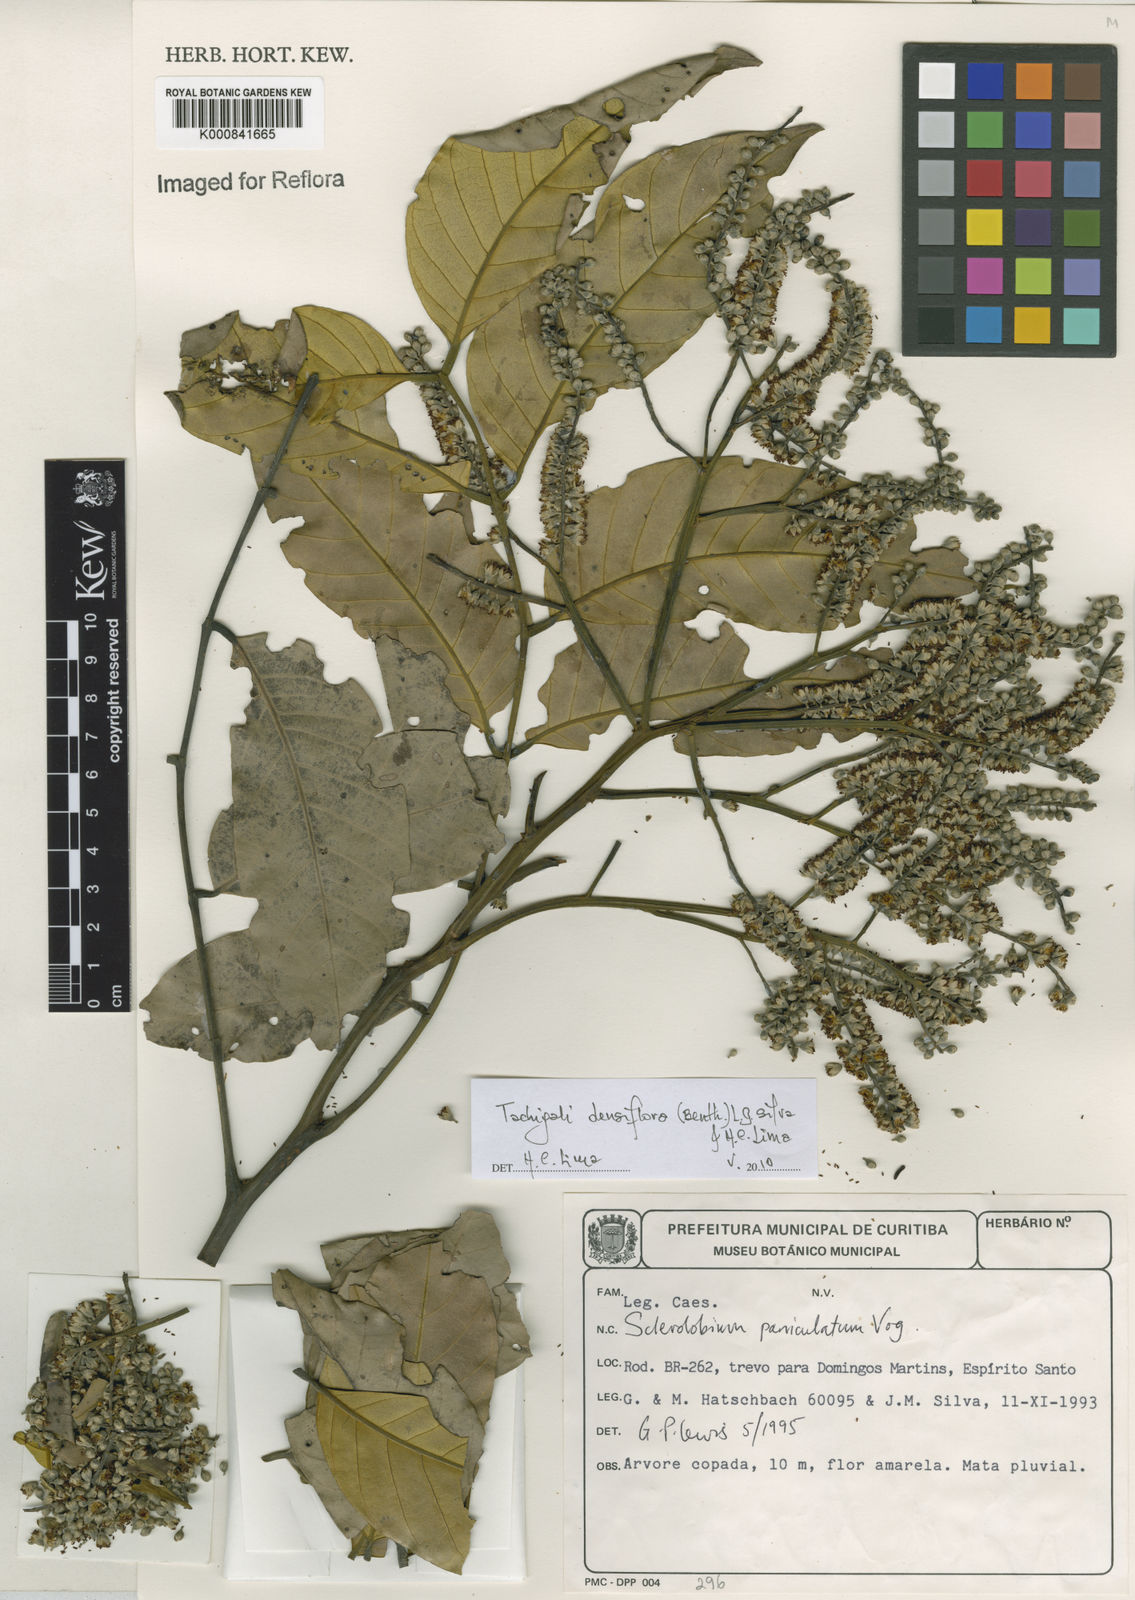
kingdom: Plantae
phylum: Tracheophyta
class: Magnoliopsida
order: Fabales
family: Fabaceae
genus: Tachigali
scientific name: Tachigali densiflora
